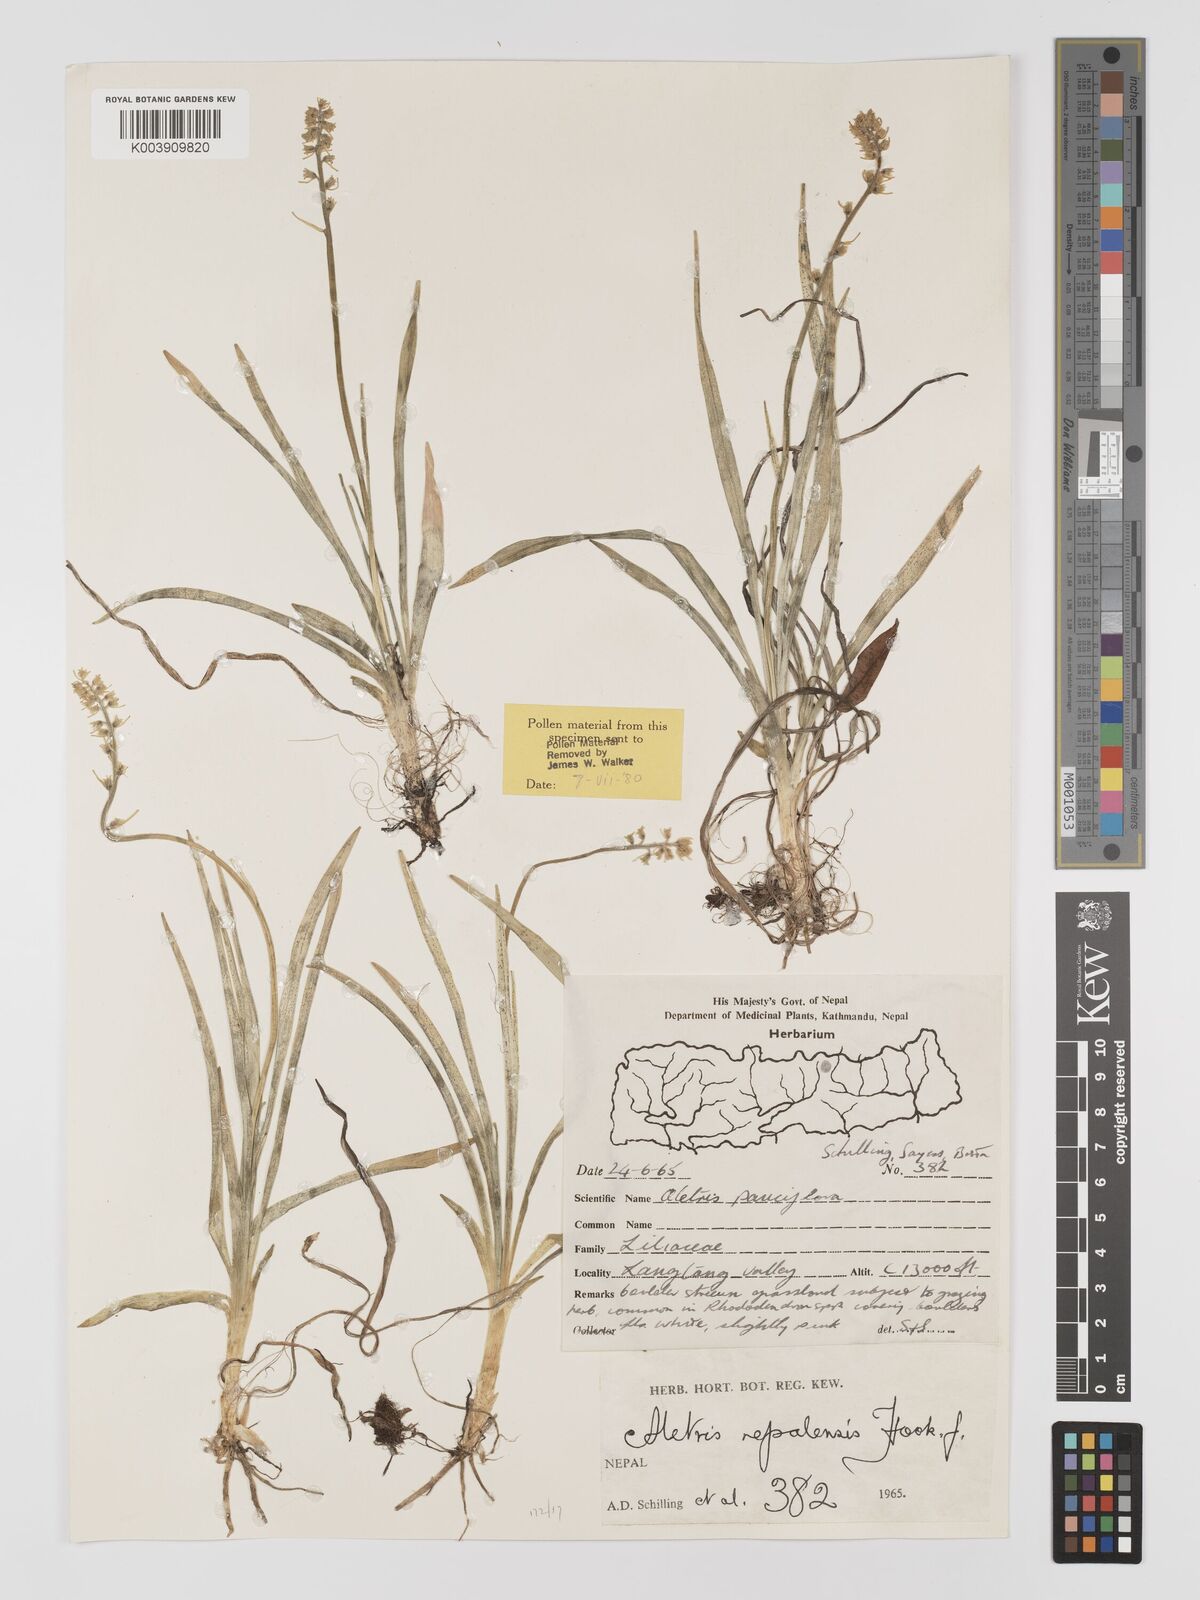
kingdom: Plantae
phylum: Tracheophyta
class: Liliopsida
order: Dioscoreales
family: Nartheciaceae
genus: Aletris
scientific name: Aletris pauciflora
